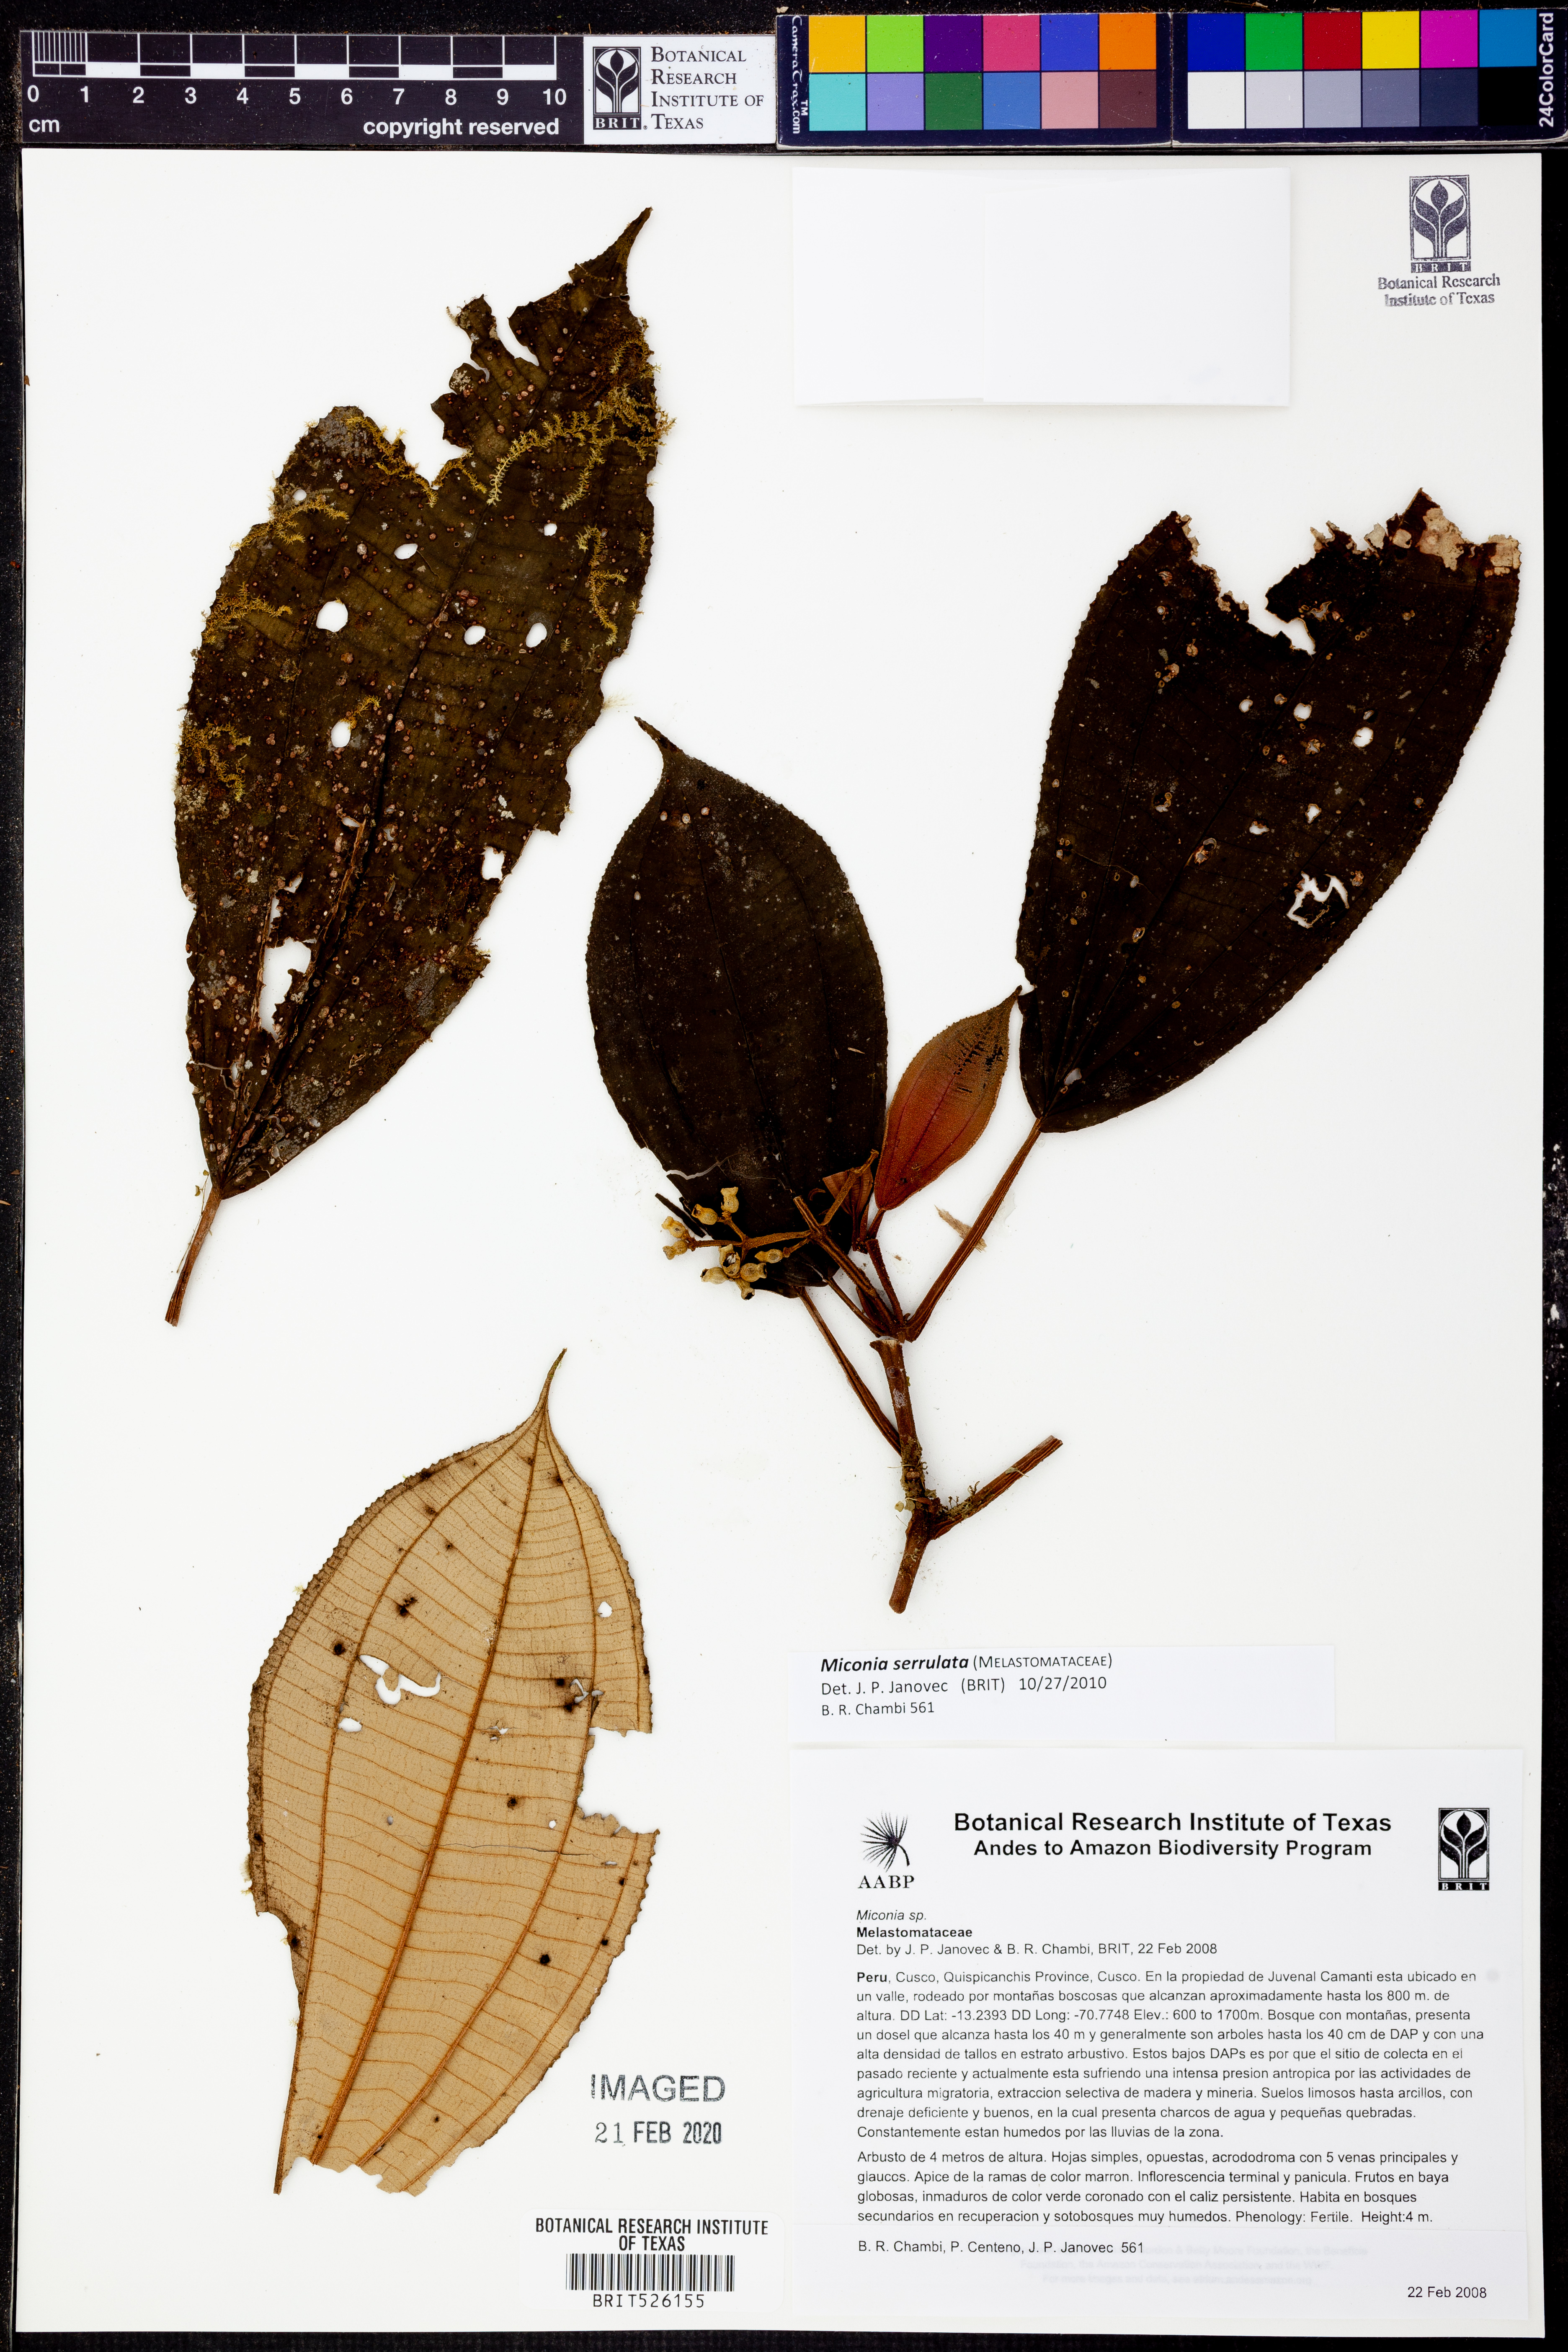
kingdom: Plantae
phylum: Tracheophyta
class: Magnoliopsida
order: Myrtales
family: Melastomataceae
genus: Miconia
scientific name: Miconia serrulata
